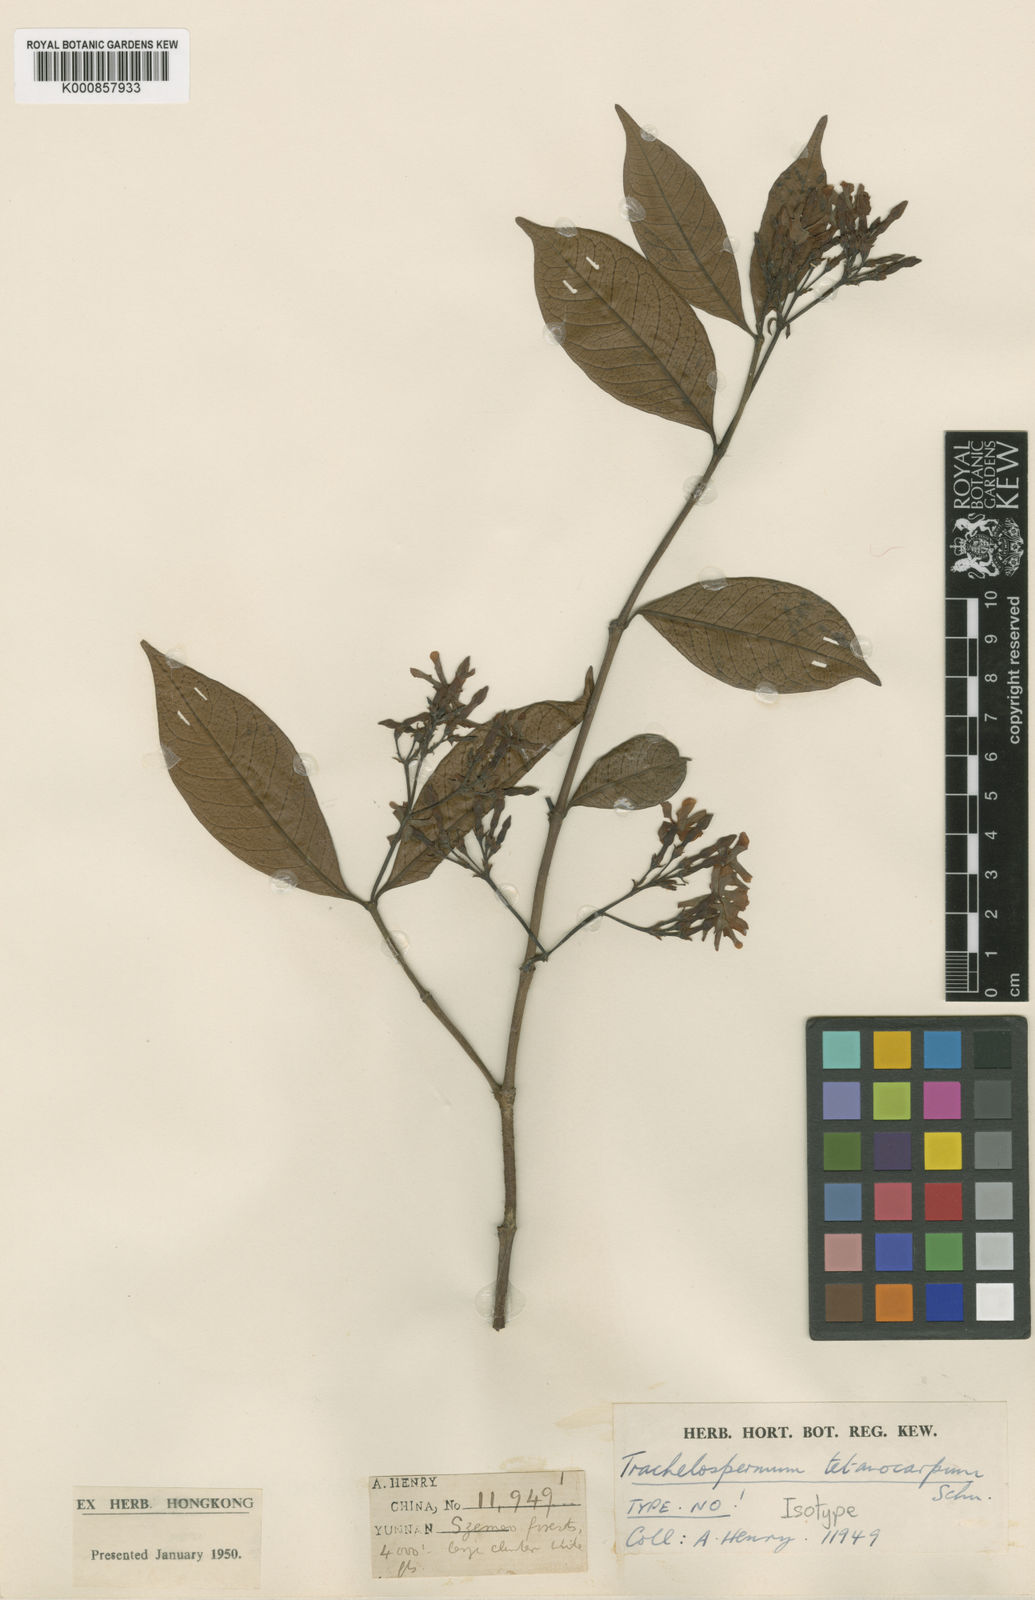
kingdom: Plantae
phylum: Tracheophyta
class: Magnoliopsida
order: Gentianales
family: Apocynaceae
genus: Trachelospermum
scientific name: Trachelospermum bodinieri
